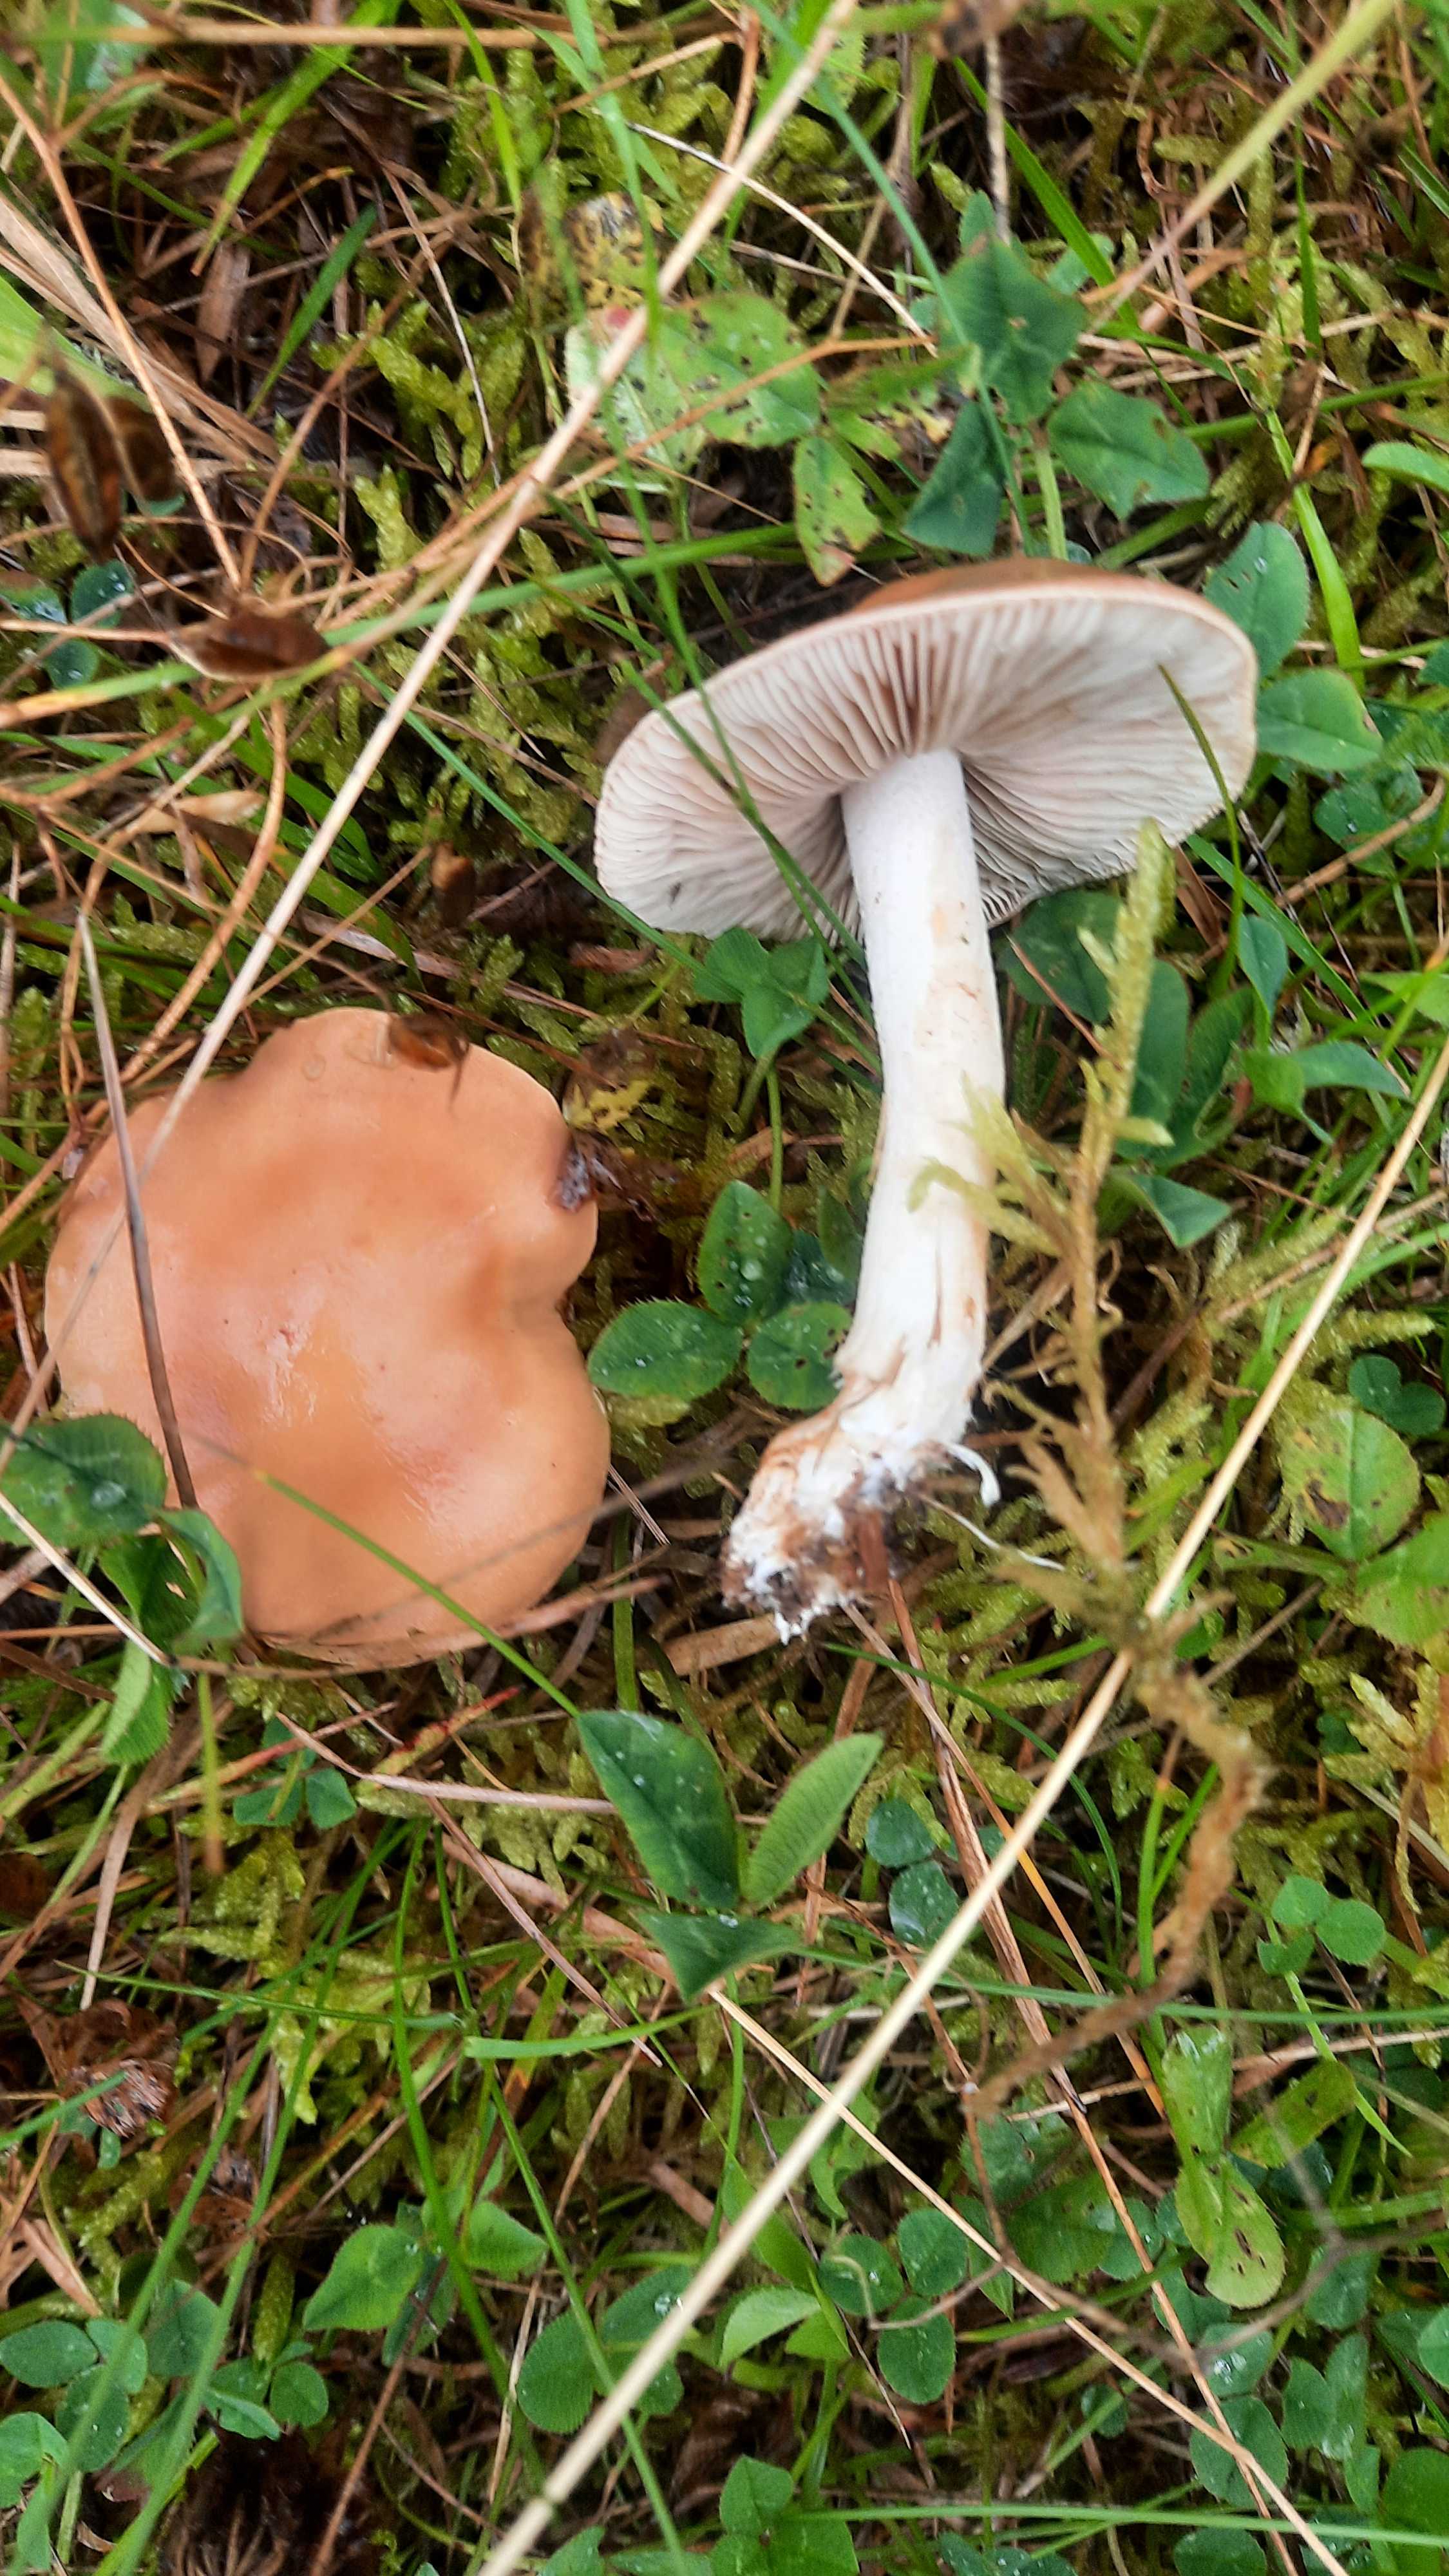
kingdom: Fungi
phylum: Basidiomycota
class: Agaricomycetes
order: Agaricales
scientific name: Agaricales
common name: champignonordenen
